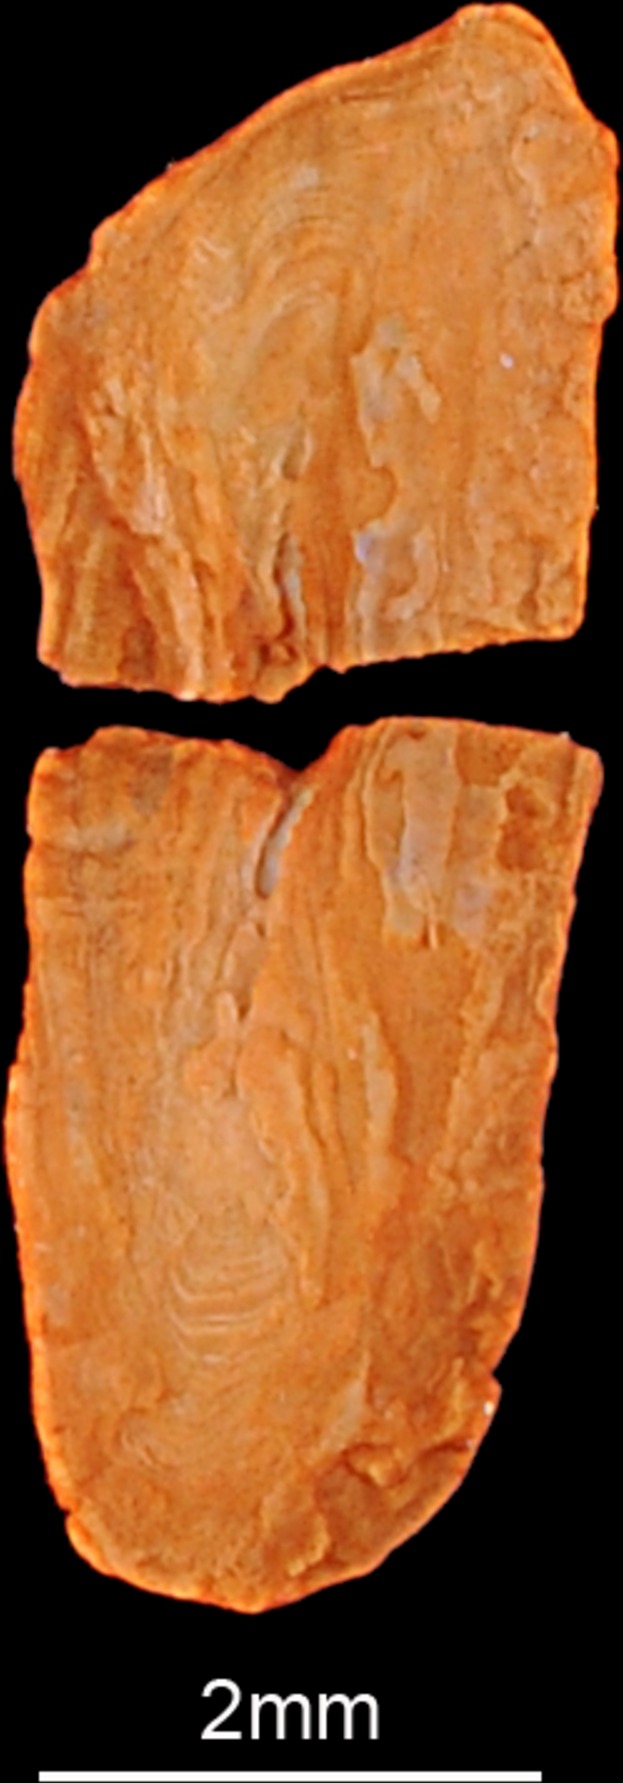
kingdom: Animalia
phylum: Chordata
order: Gadiformes
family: Lotidae
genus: Gaidropsarus
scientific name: Gaidropsarus mediterraneus
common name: Shore rockling
